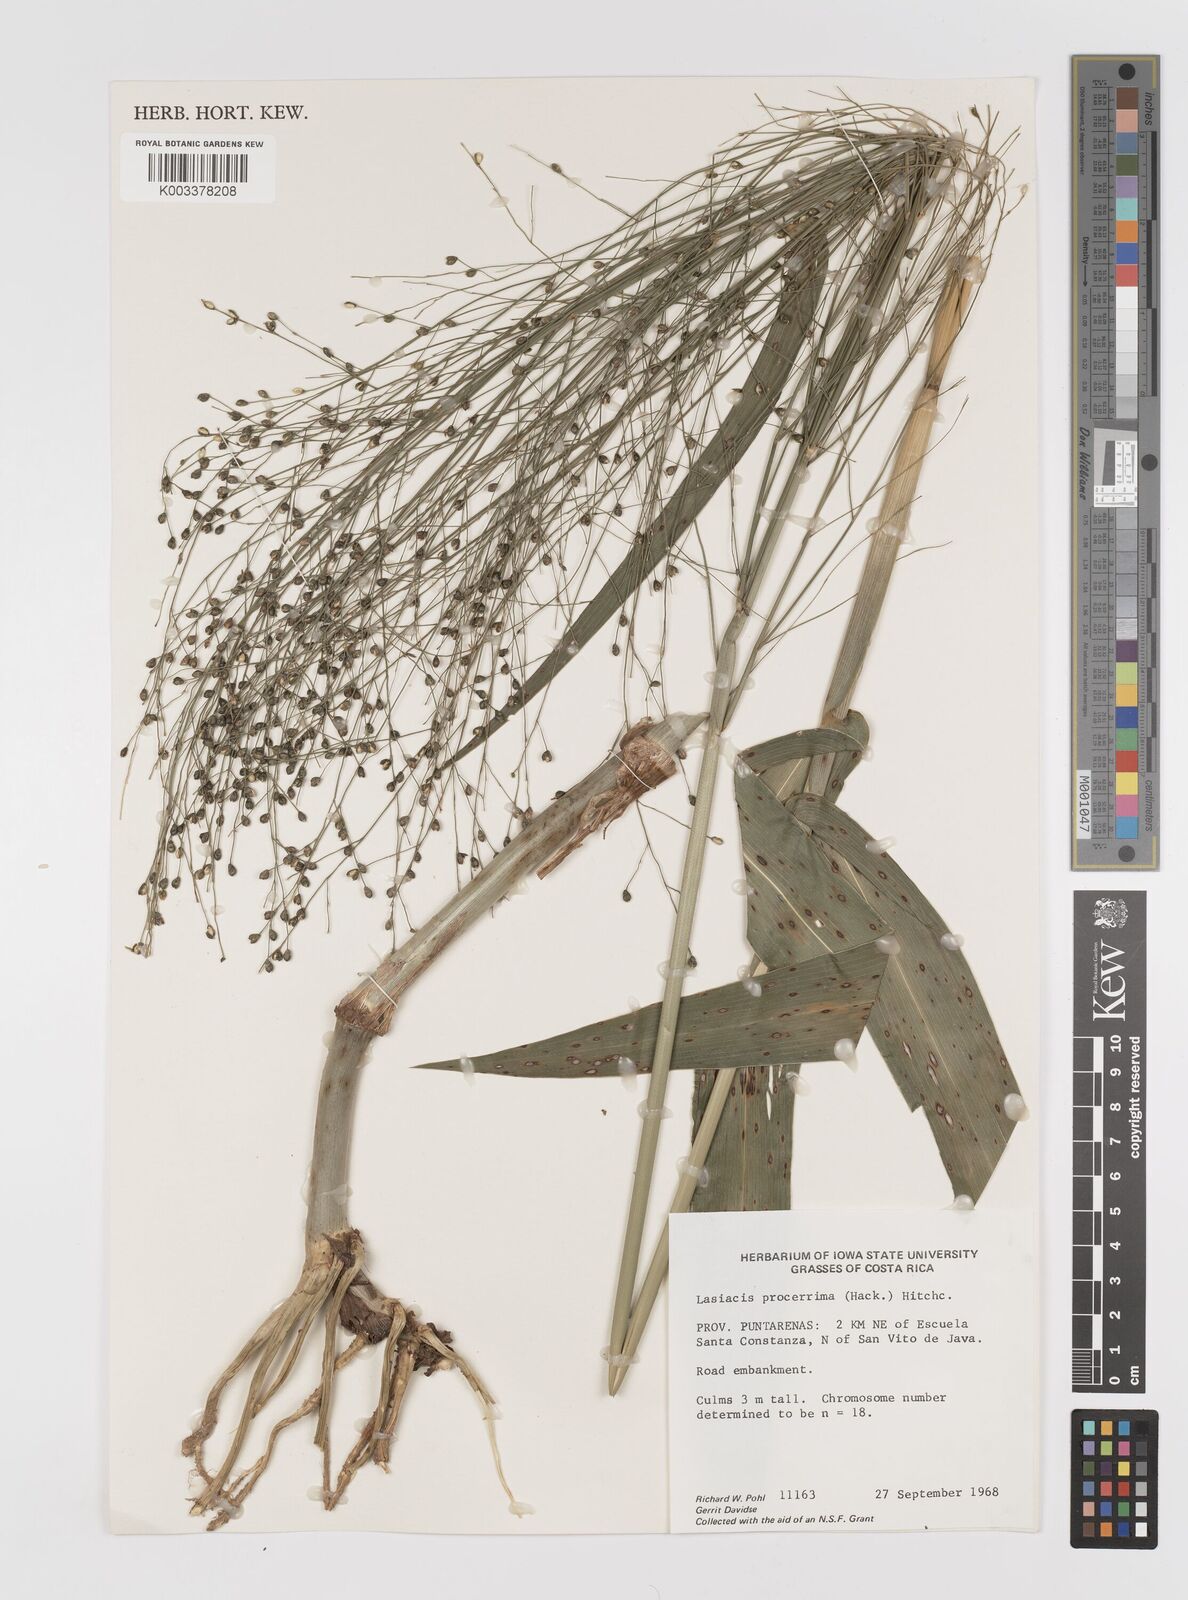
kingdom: Plantae
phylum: Tracheophyta
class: Liliopsida
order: Poales
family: Poaceae
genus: Lasiacis
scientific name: Lasiacis procerrima
